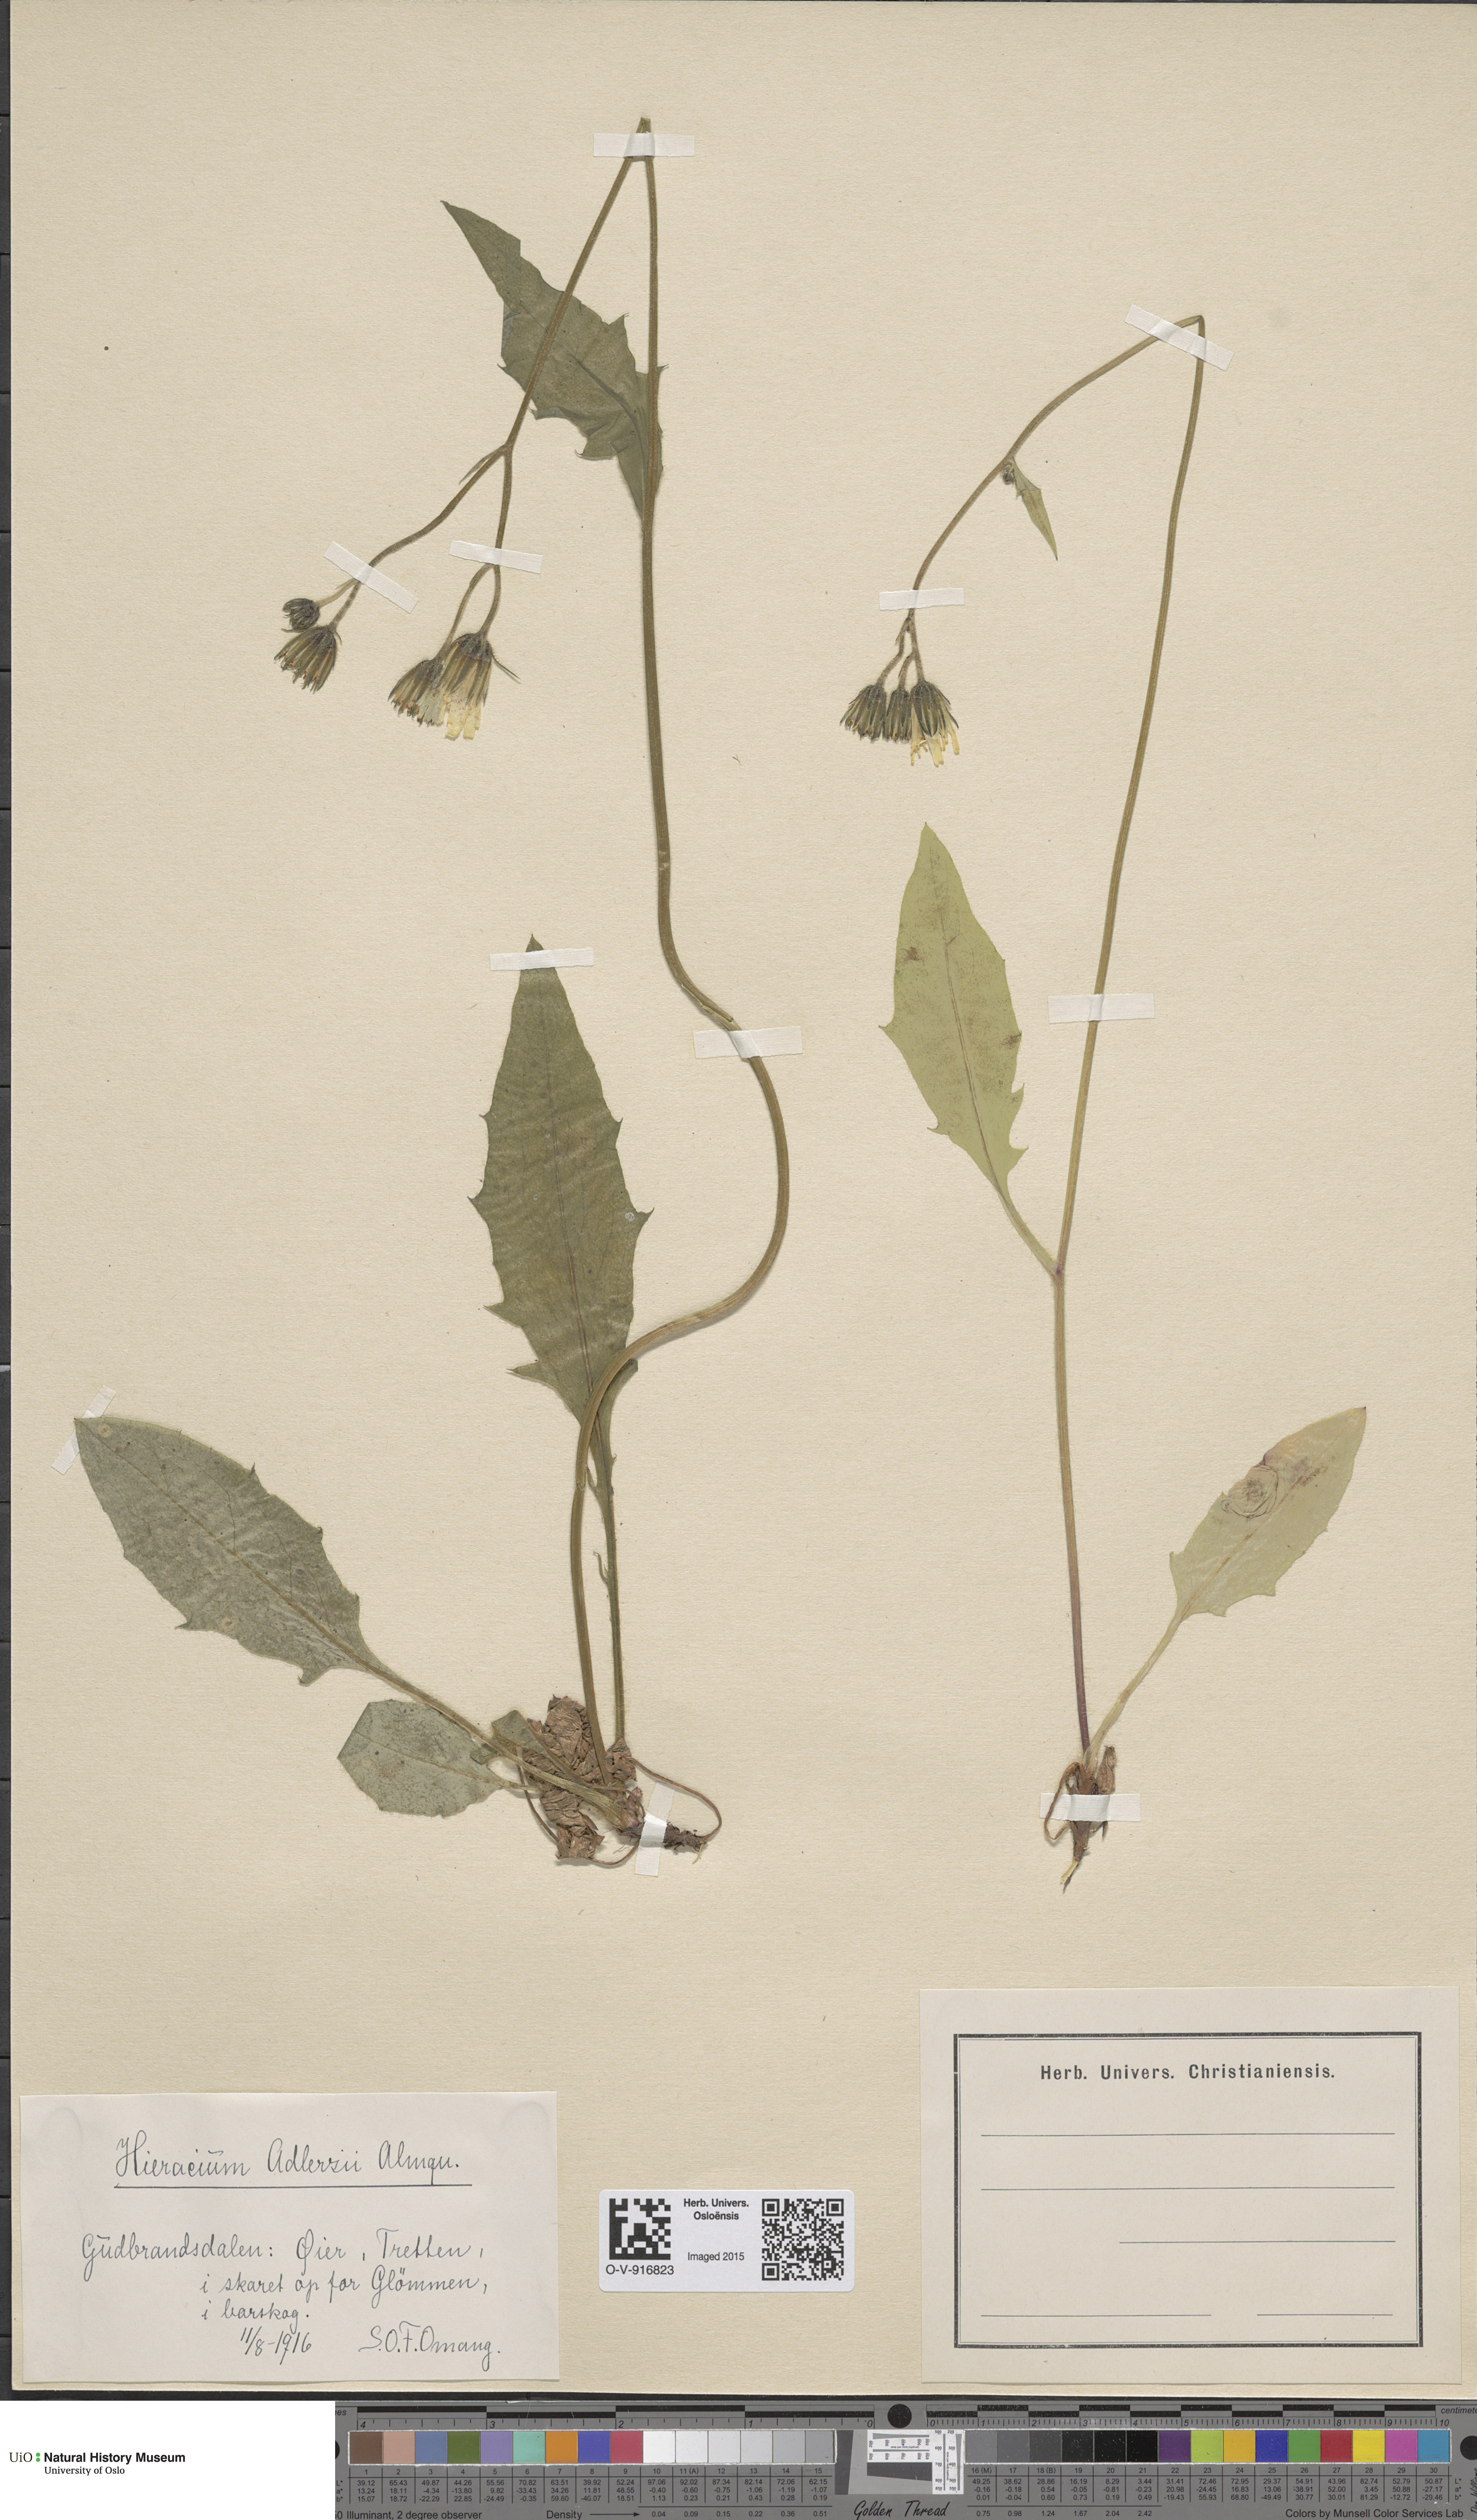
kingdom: Plantae
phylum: Tracheophyta
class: Magnoliopsida
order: Asterales
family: Asteraceae
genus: Hieracium
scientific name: Hieracium
